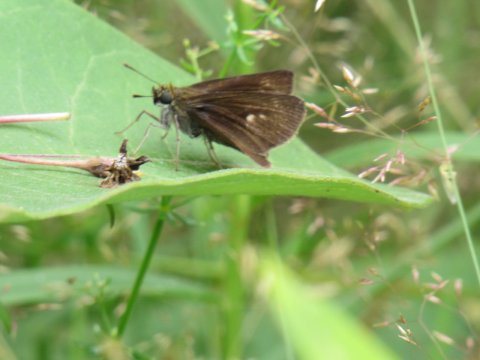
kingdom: Animalia
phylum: Arthropoda
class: Insecta
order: Lepidoptera
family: Hesperiidae
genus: Euphyes
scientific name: Euphyes vestris
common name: Dun Skipper
